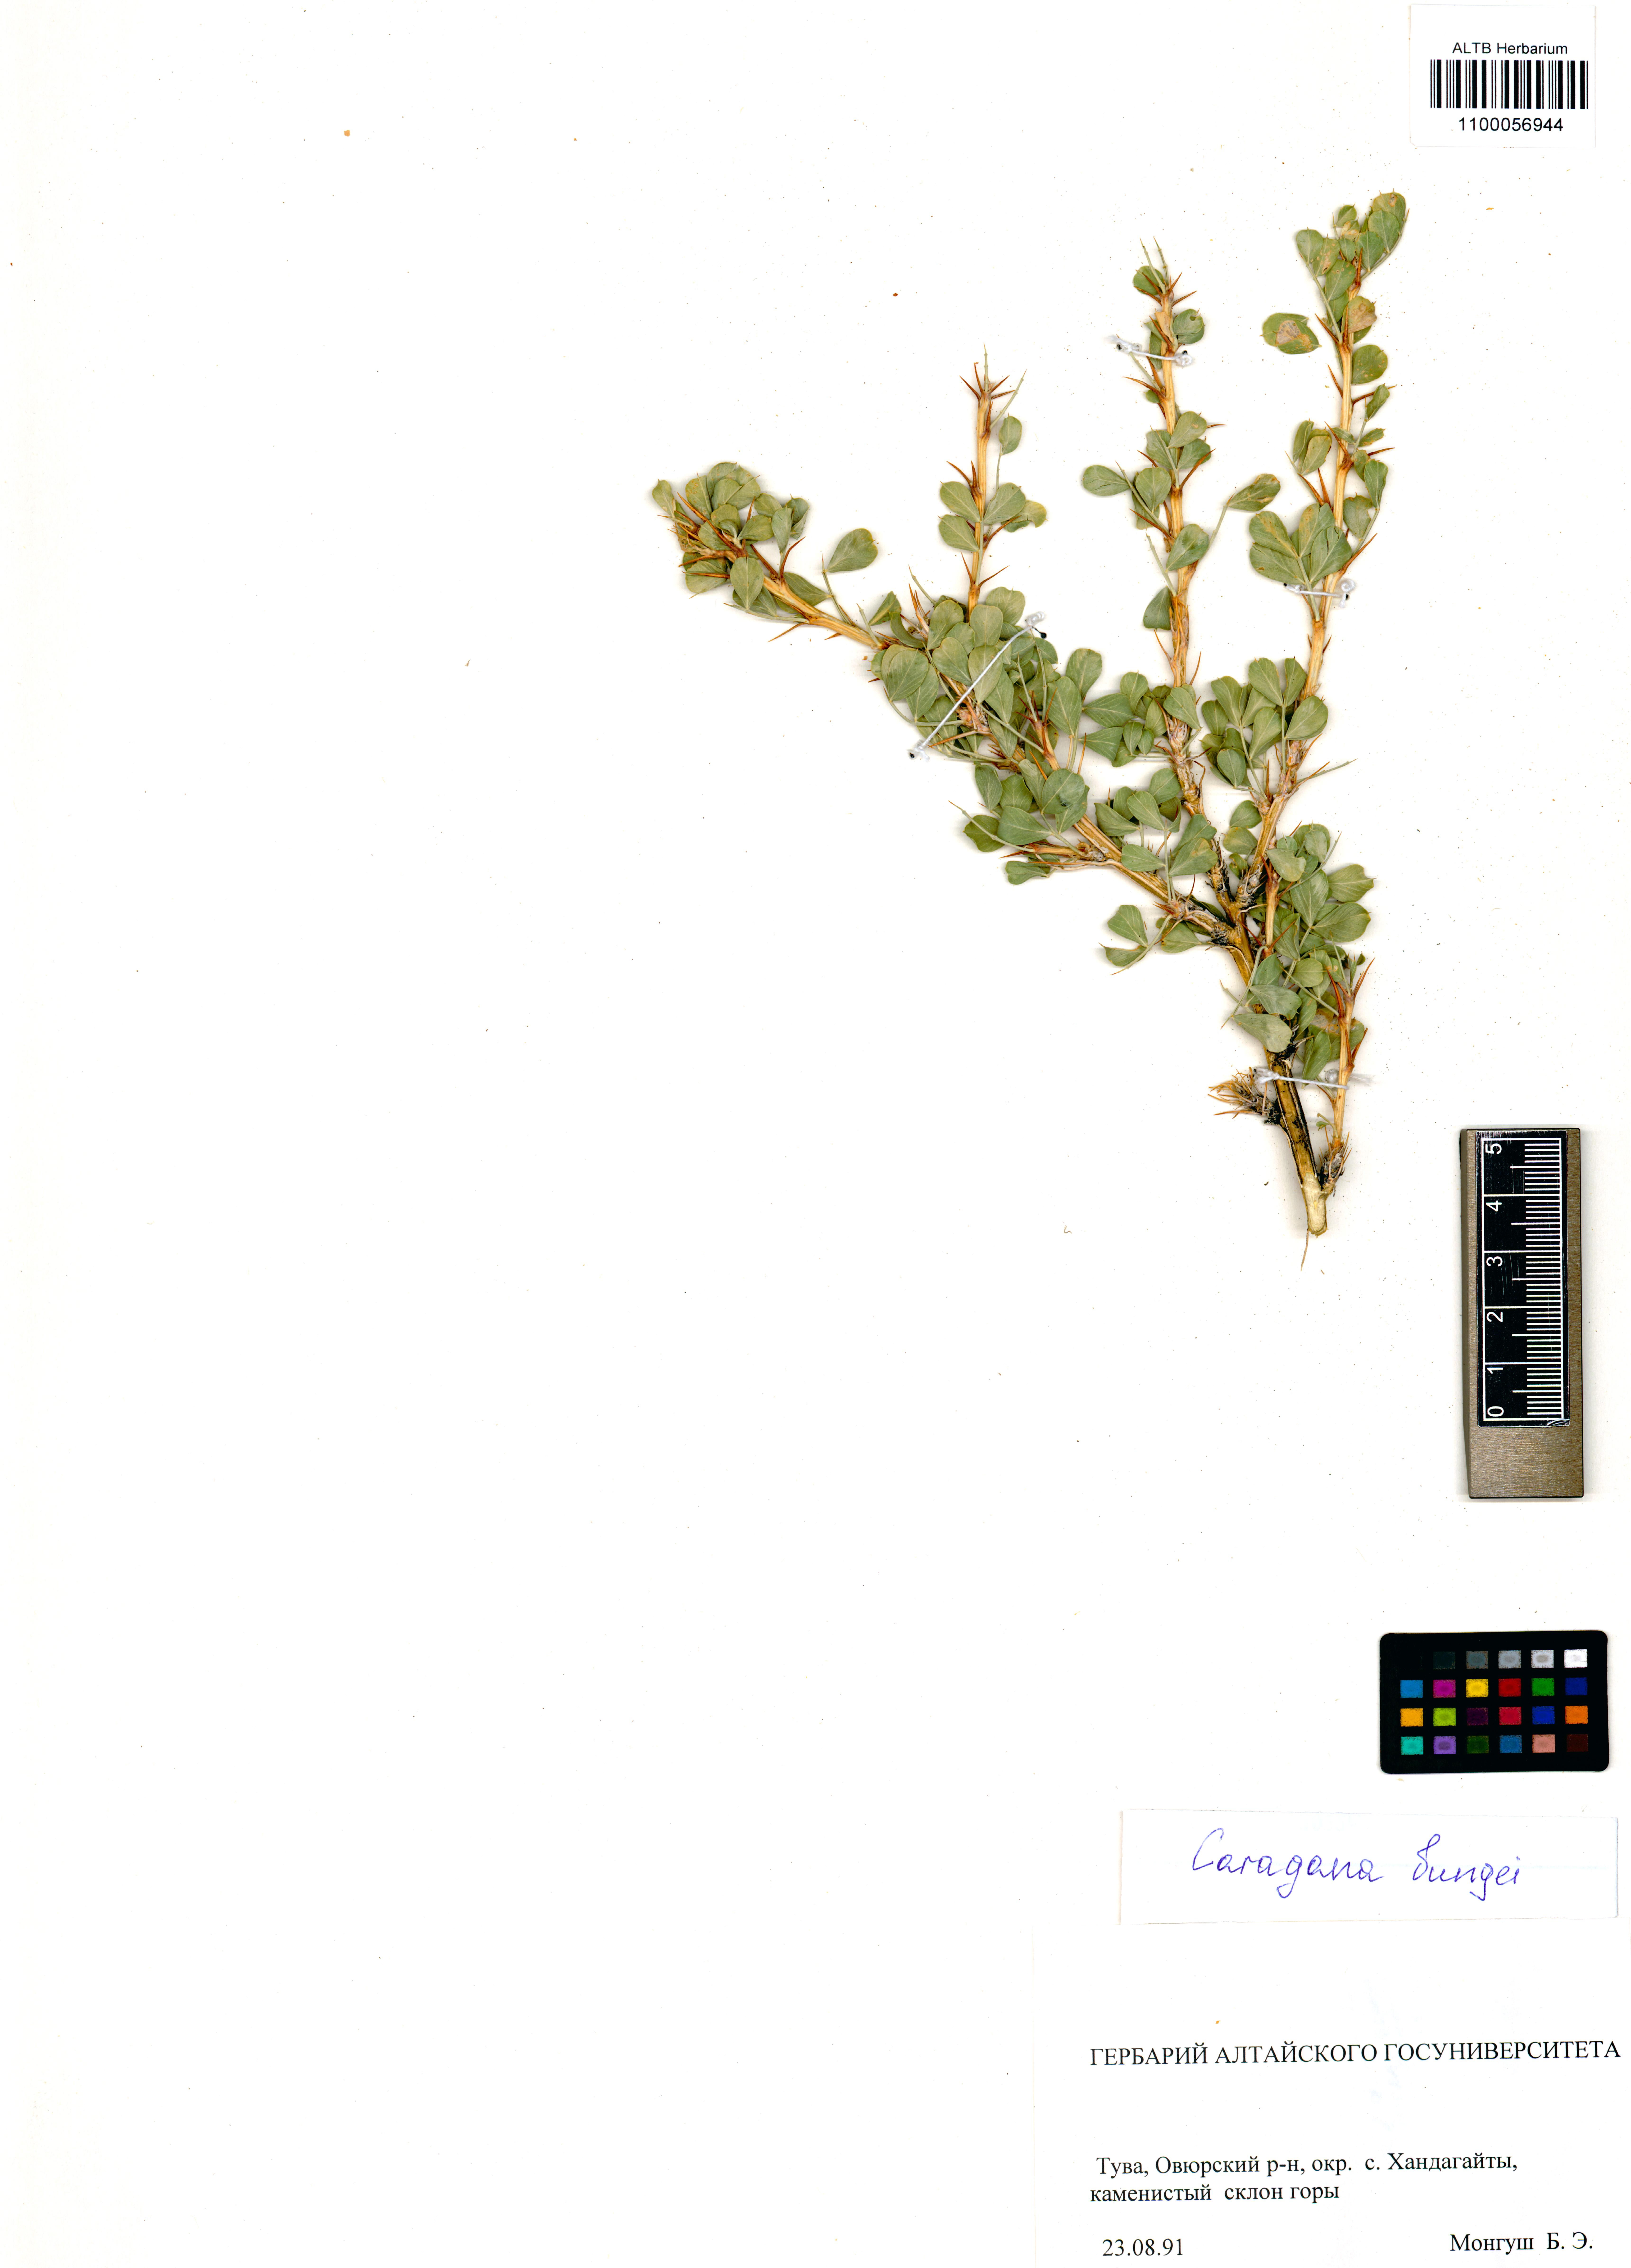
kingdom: Plantae
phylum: Tracheophyta
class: Magnoliopsida
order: Fabales
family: Fabaceae
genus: Caragana
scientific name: Caragana bungei
